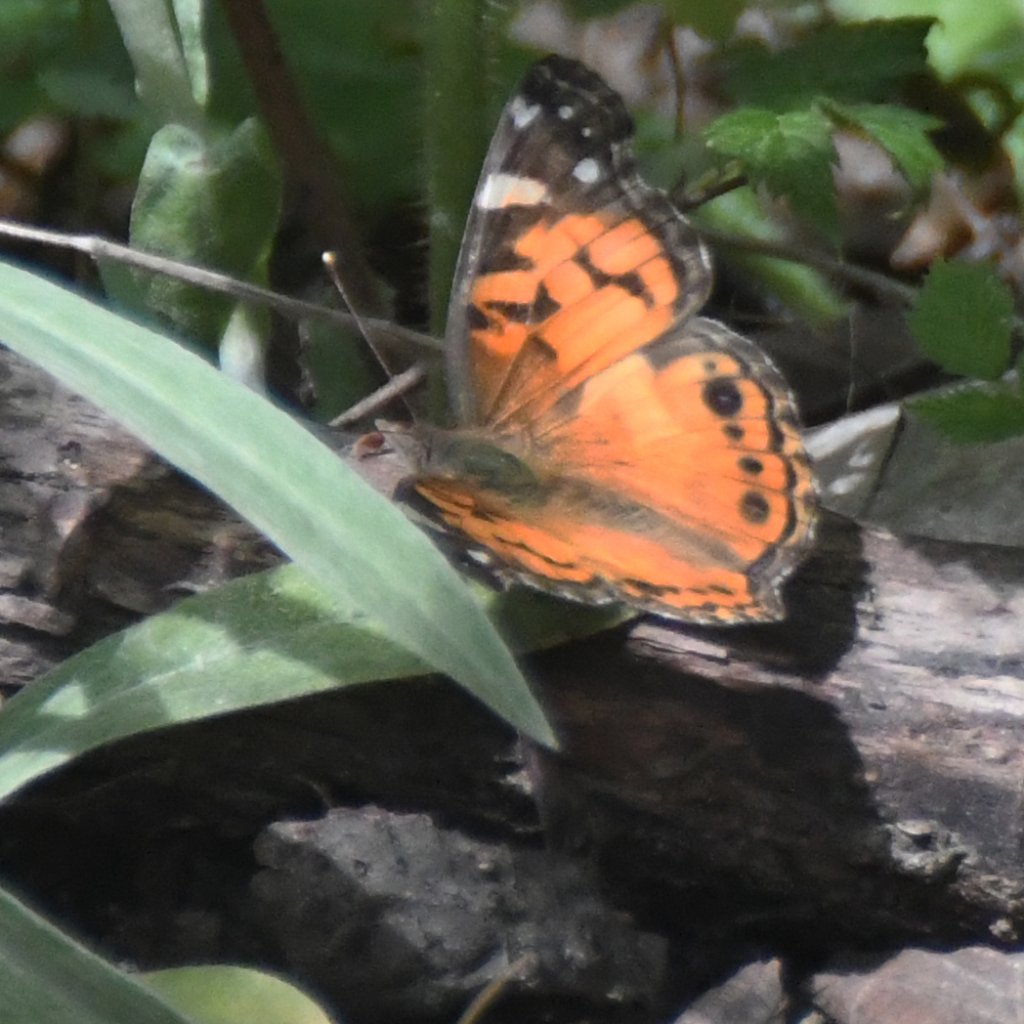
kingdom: Animalia
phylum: Arthropoda
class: Insecta
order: Lepidoptera
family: Nymphalidae
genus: Vanessa
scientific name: Vanessa virginiensis
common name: American Lady
